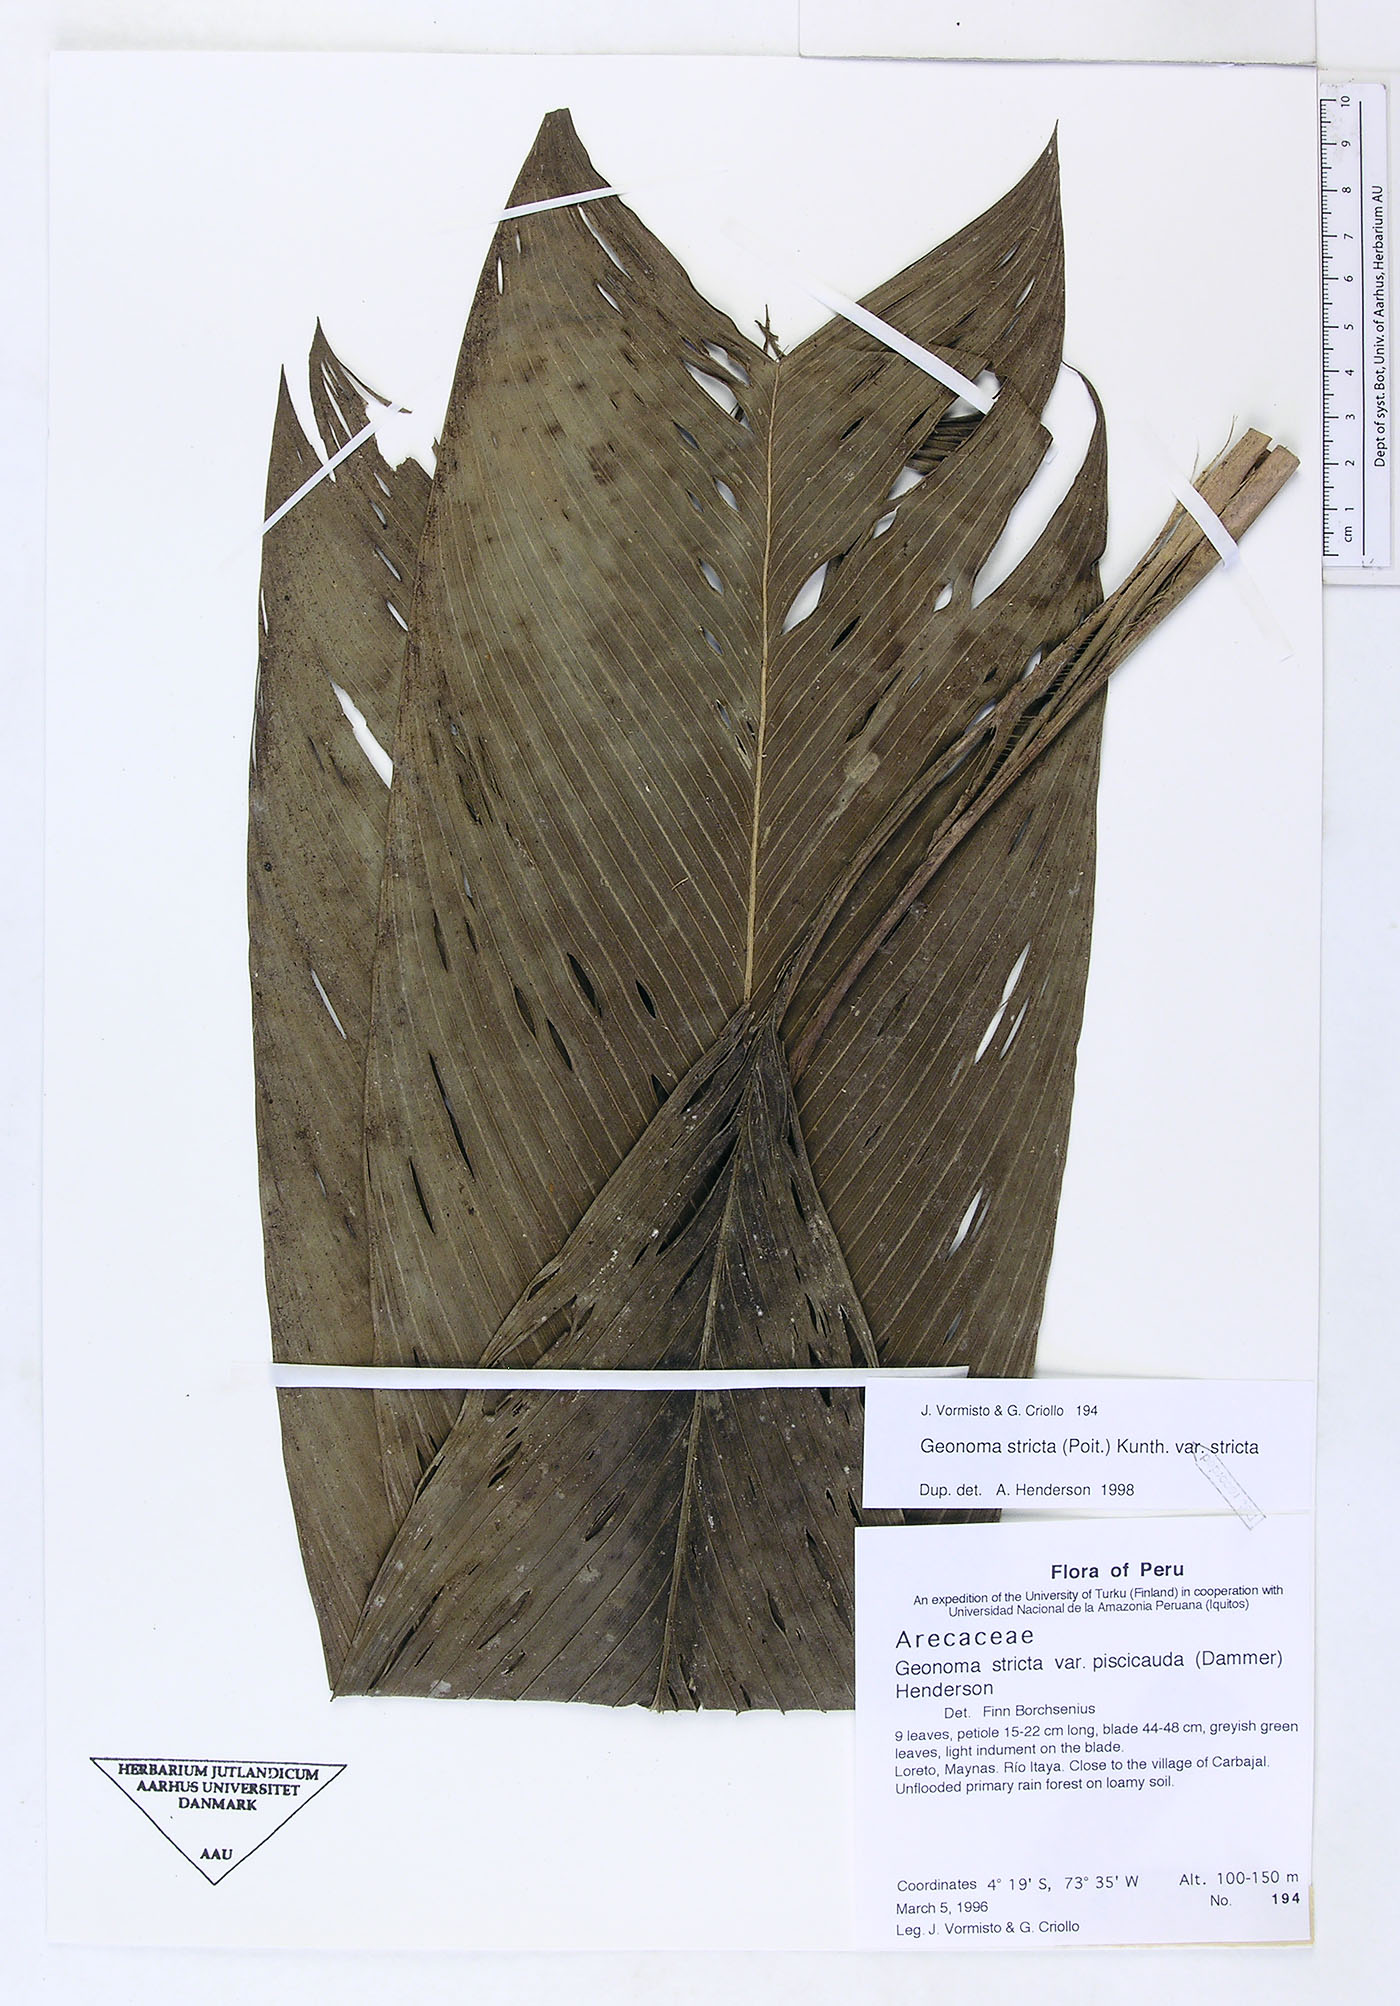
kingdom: Plantae
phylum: Tracheophyta
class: Liliopsida
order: Arecales
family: Arecaceae
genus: Geonoma
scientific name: Geonoma stricta
